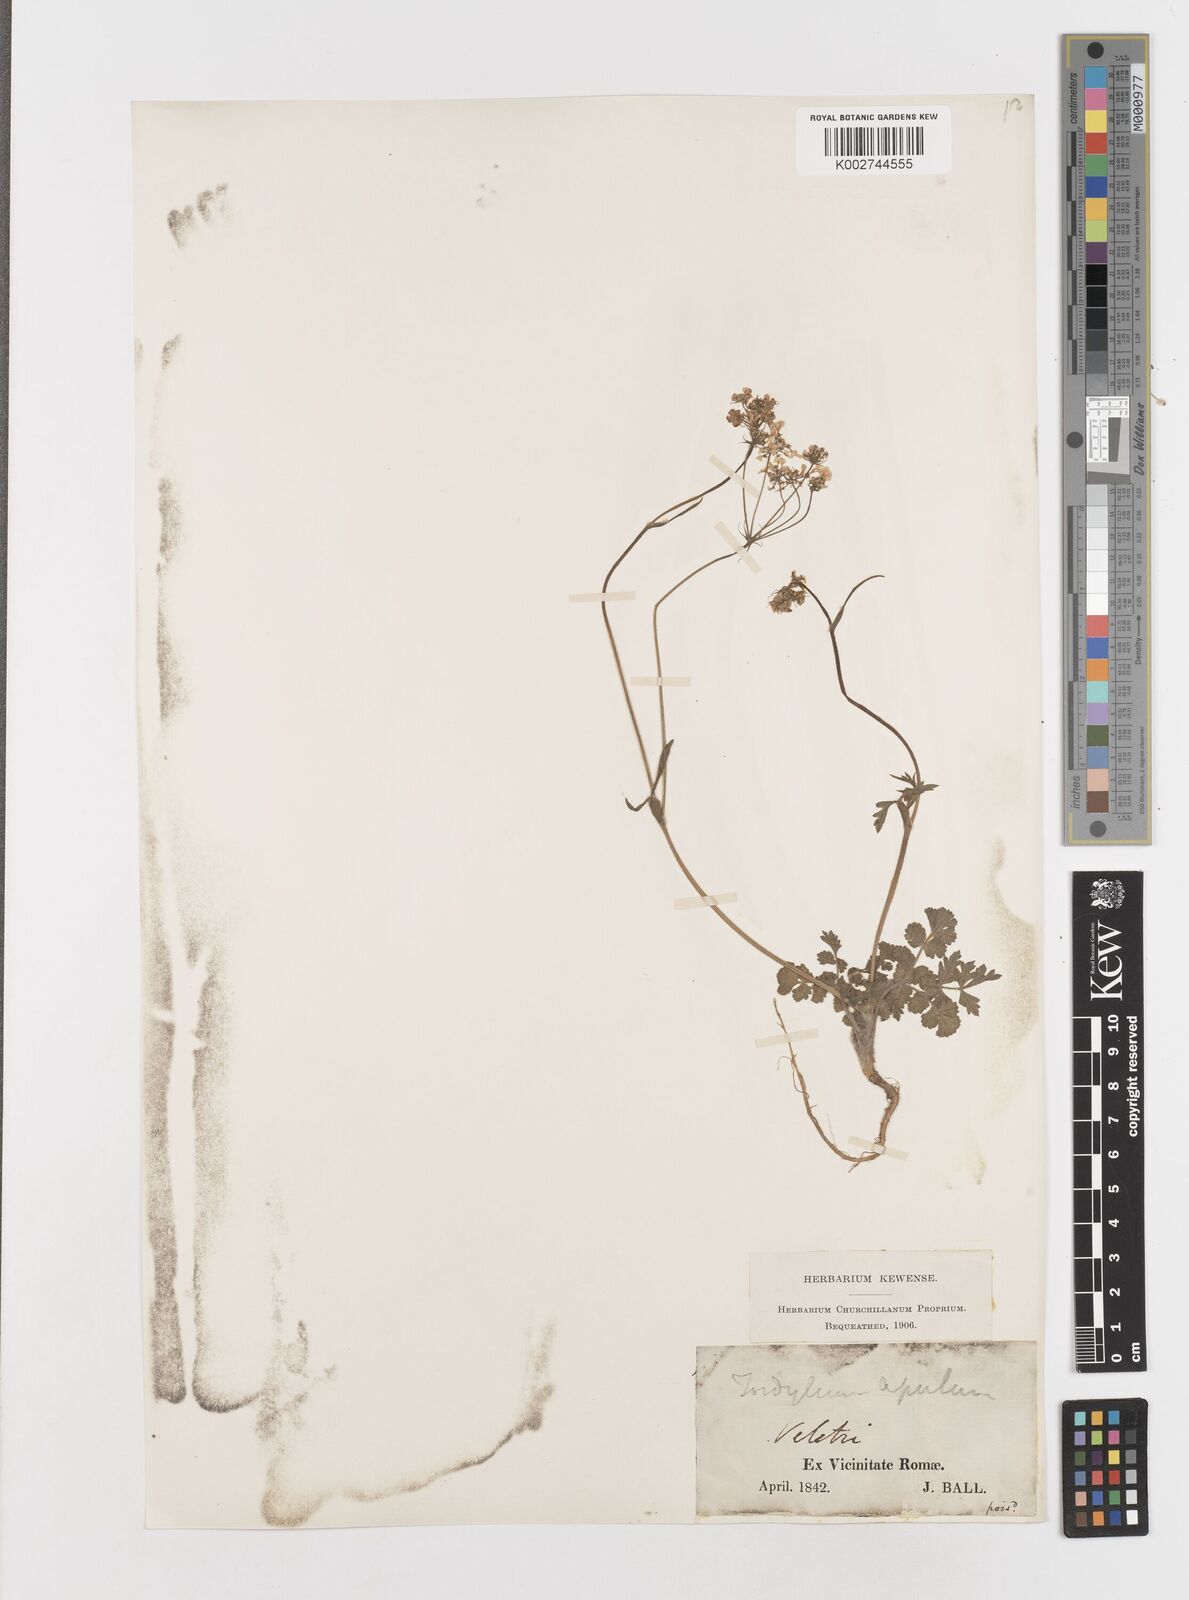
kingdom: Plantae
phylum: Tracheophyta
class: Magnoliopsida
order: Apiales
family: Apiaceae
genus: Tordylium
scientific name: Tordylium apulum
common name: Mediterranean hartwort
